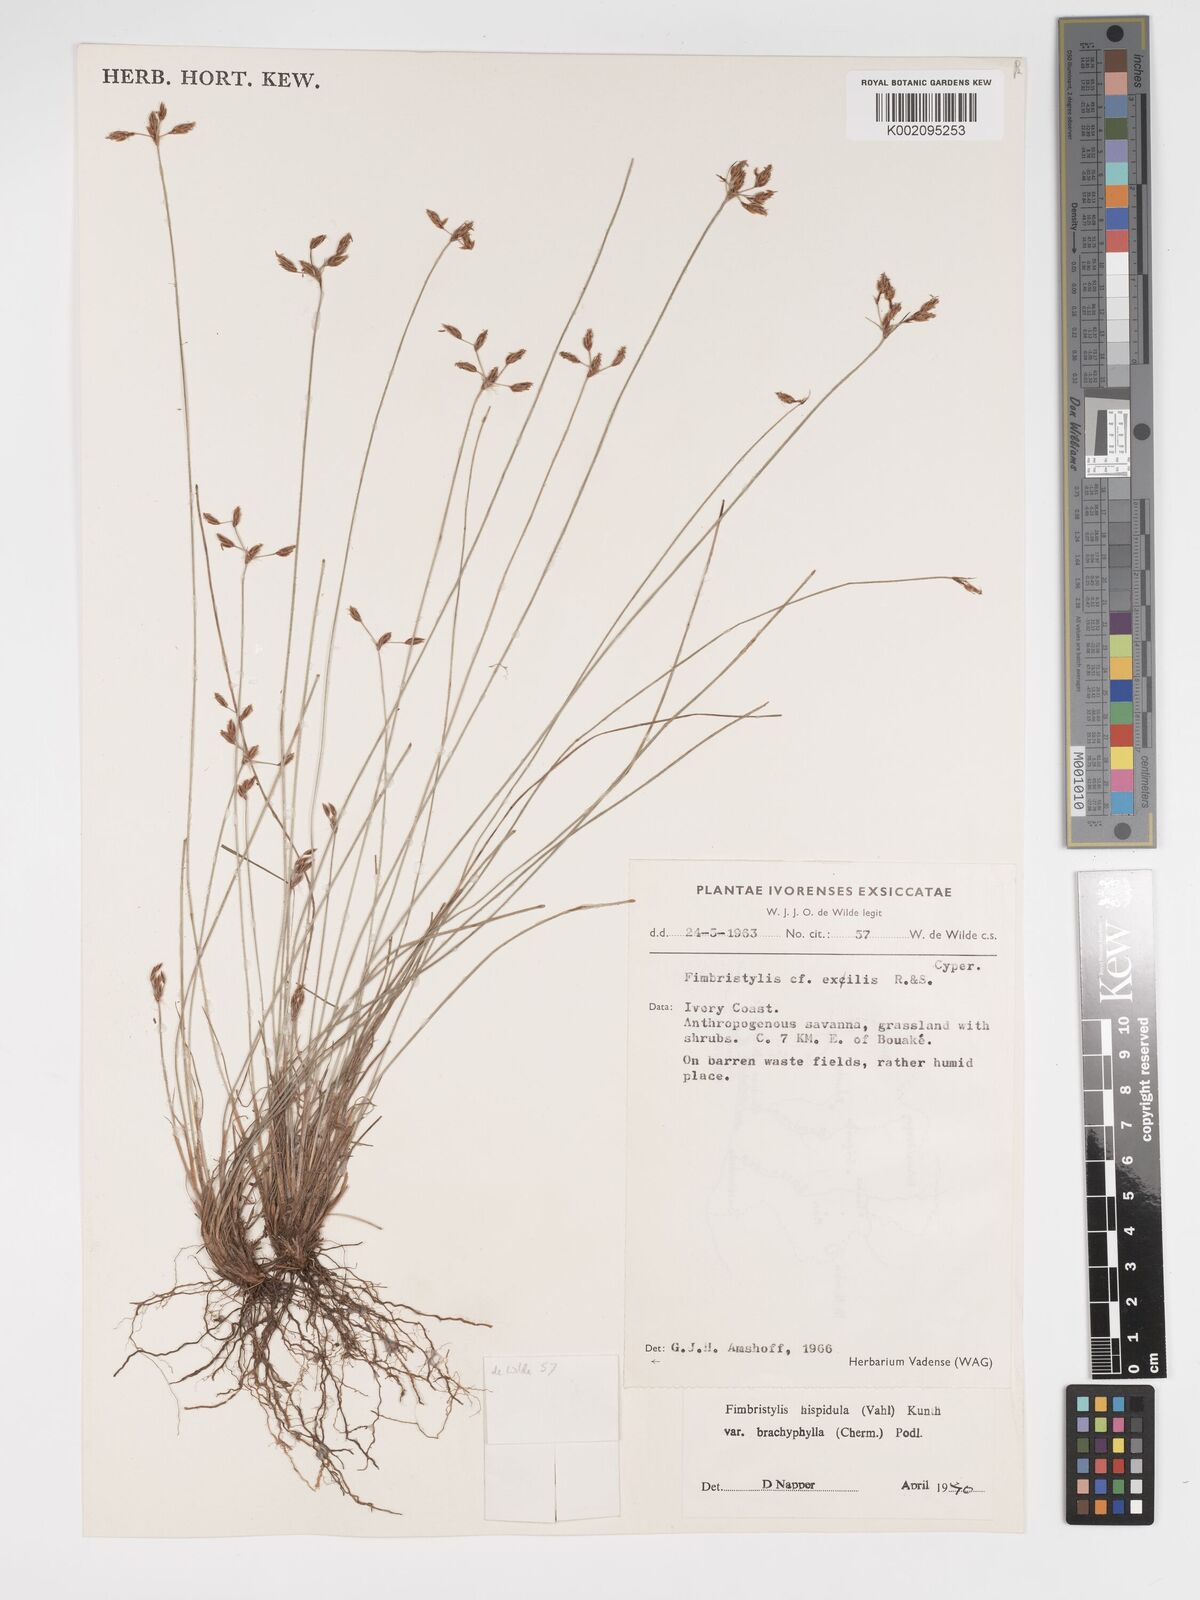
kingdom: Plantae
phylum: Tracheophyta
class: Liliopsida
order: Poales
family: Cyperaceae
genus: Bulbostylis
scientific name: Bulbostylis hispidula
